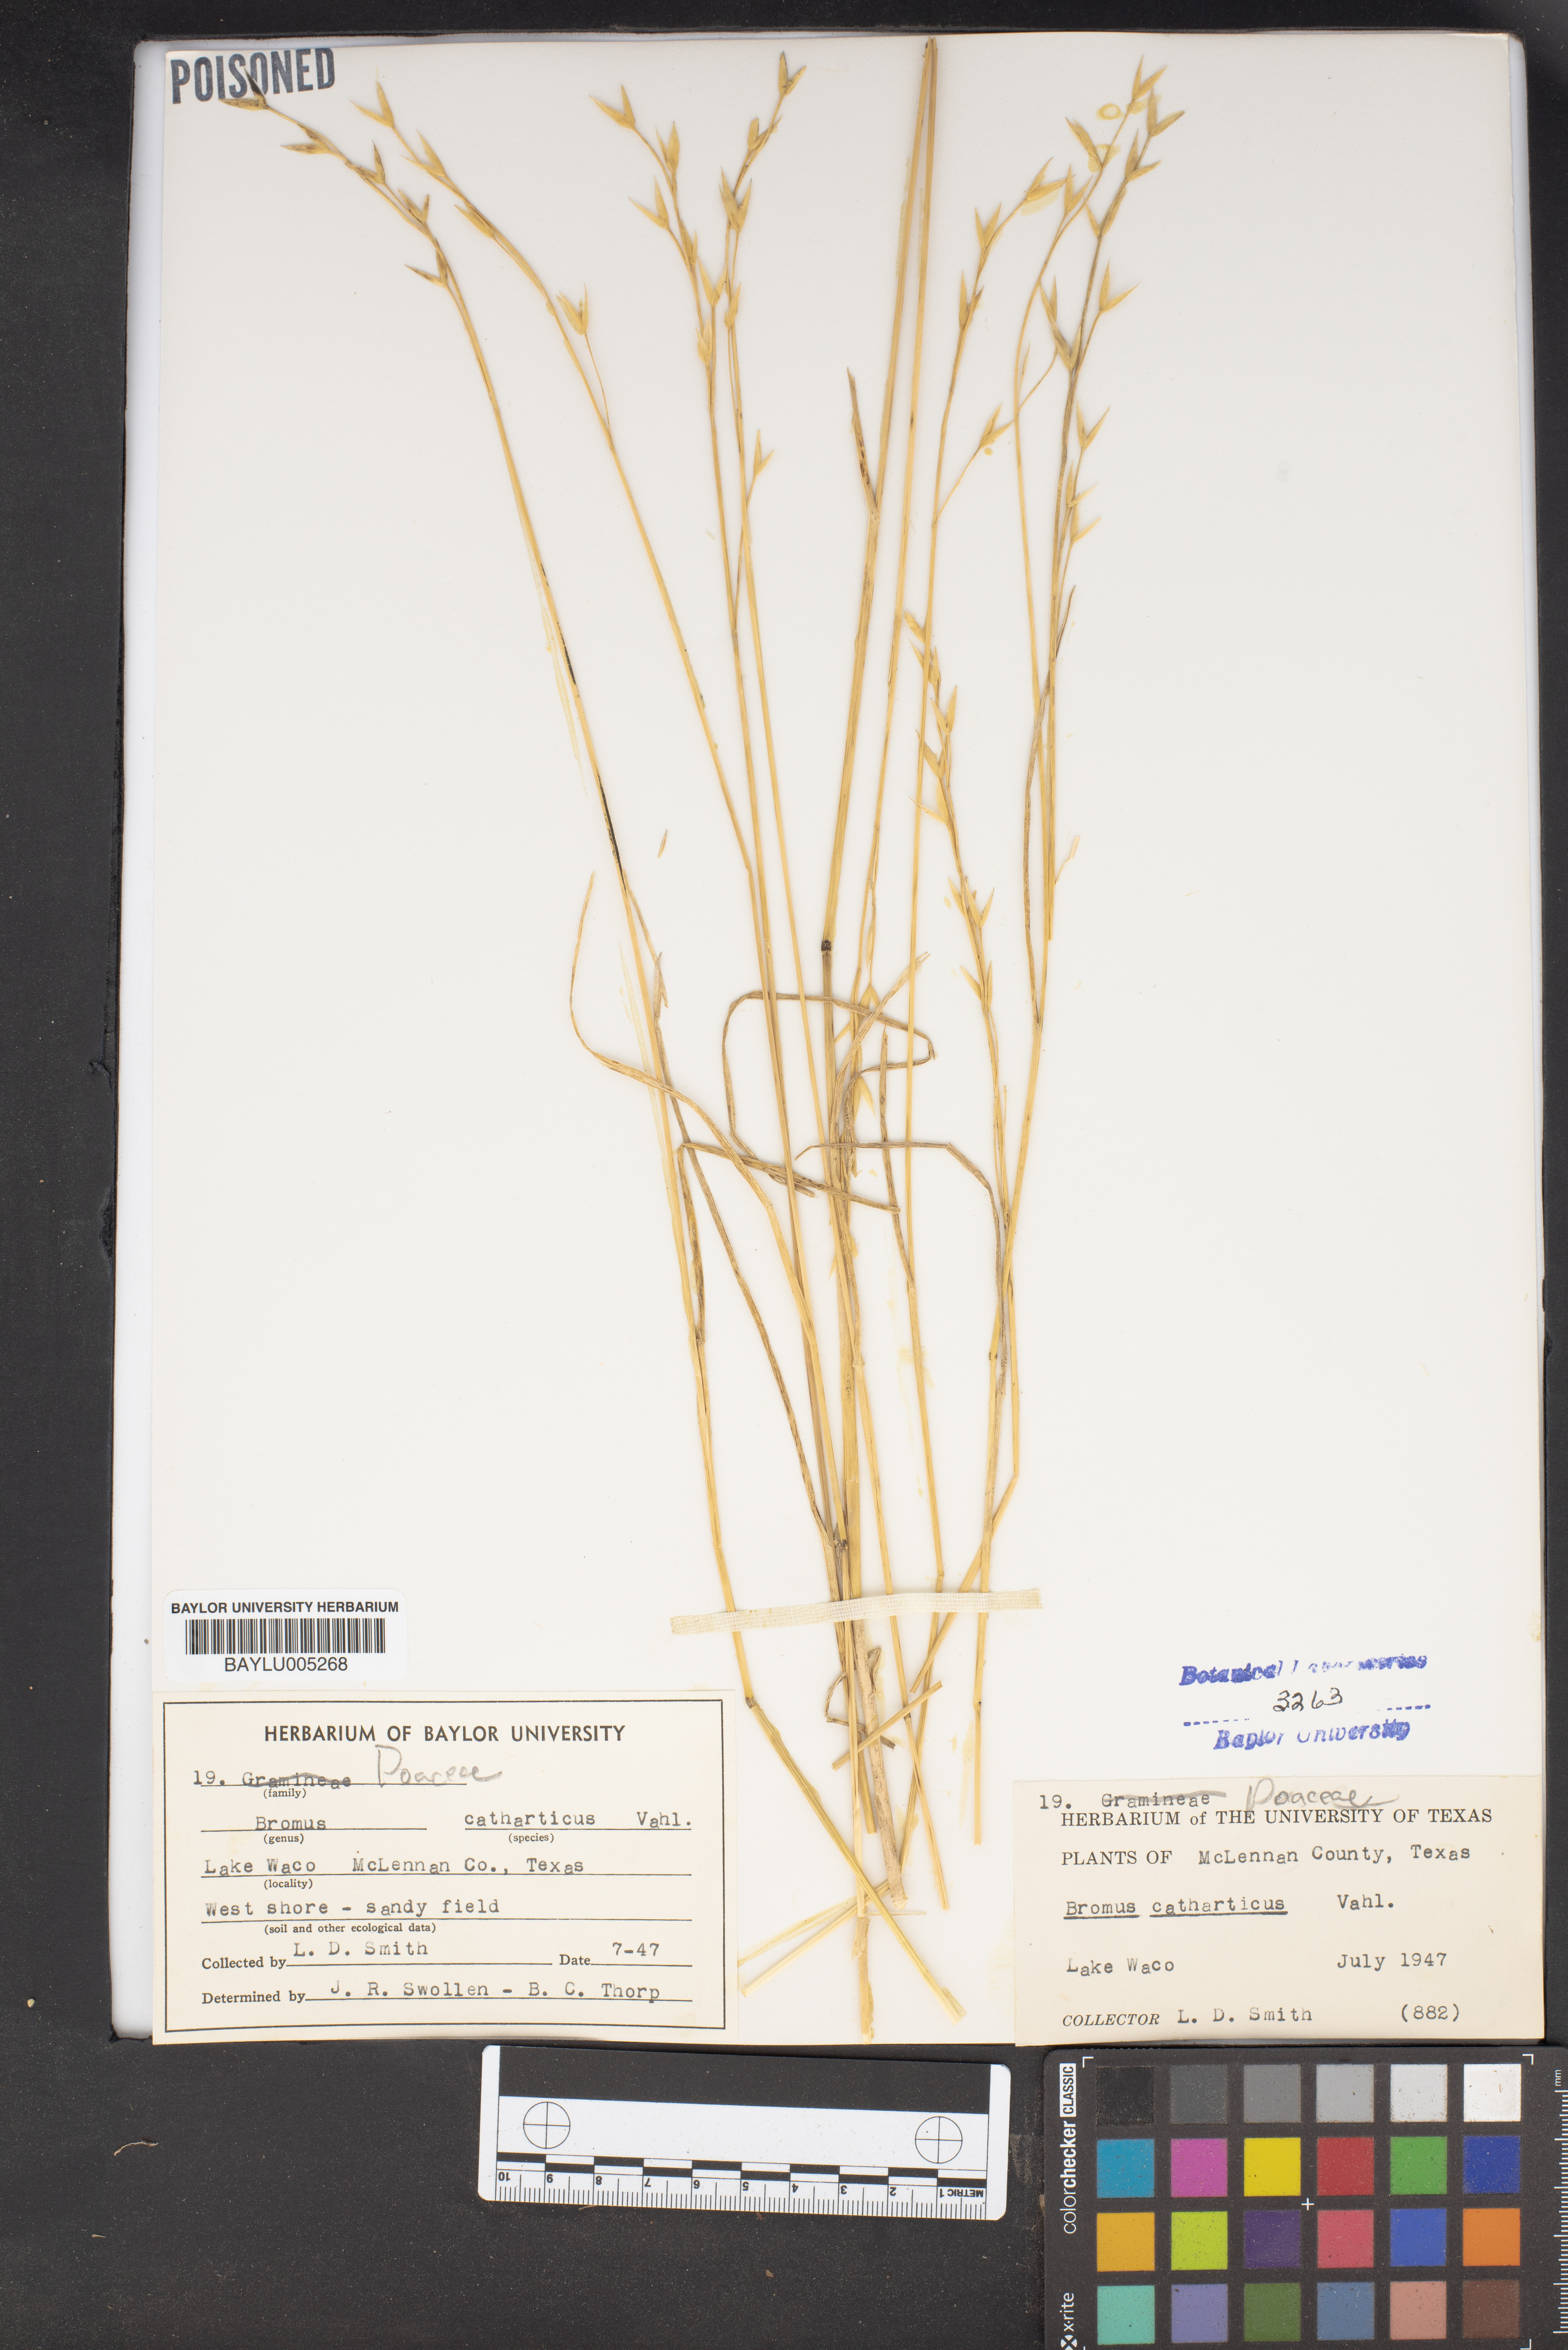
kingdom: Plantae
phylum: Tracheophyta
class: Liliopsida
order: Poales
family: Poaceae
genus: Bromus
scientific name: Bromus catharticus
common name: Rescuegrass
